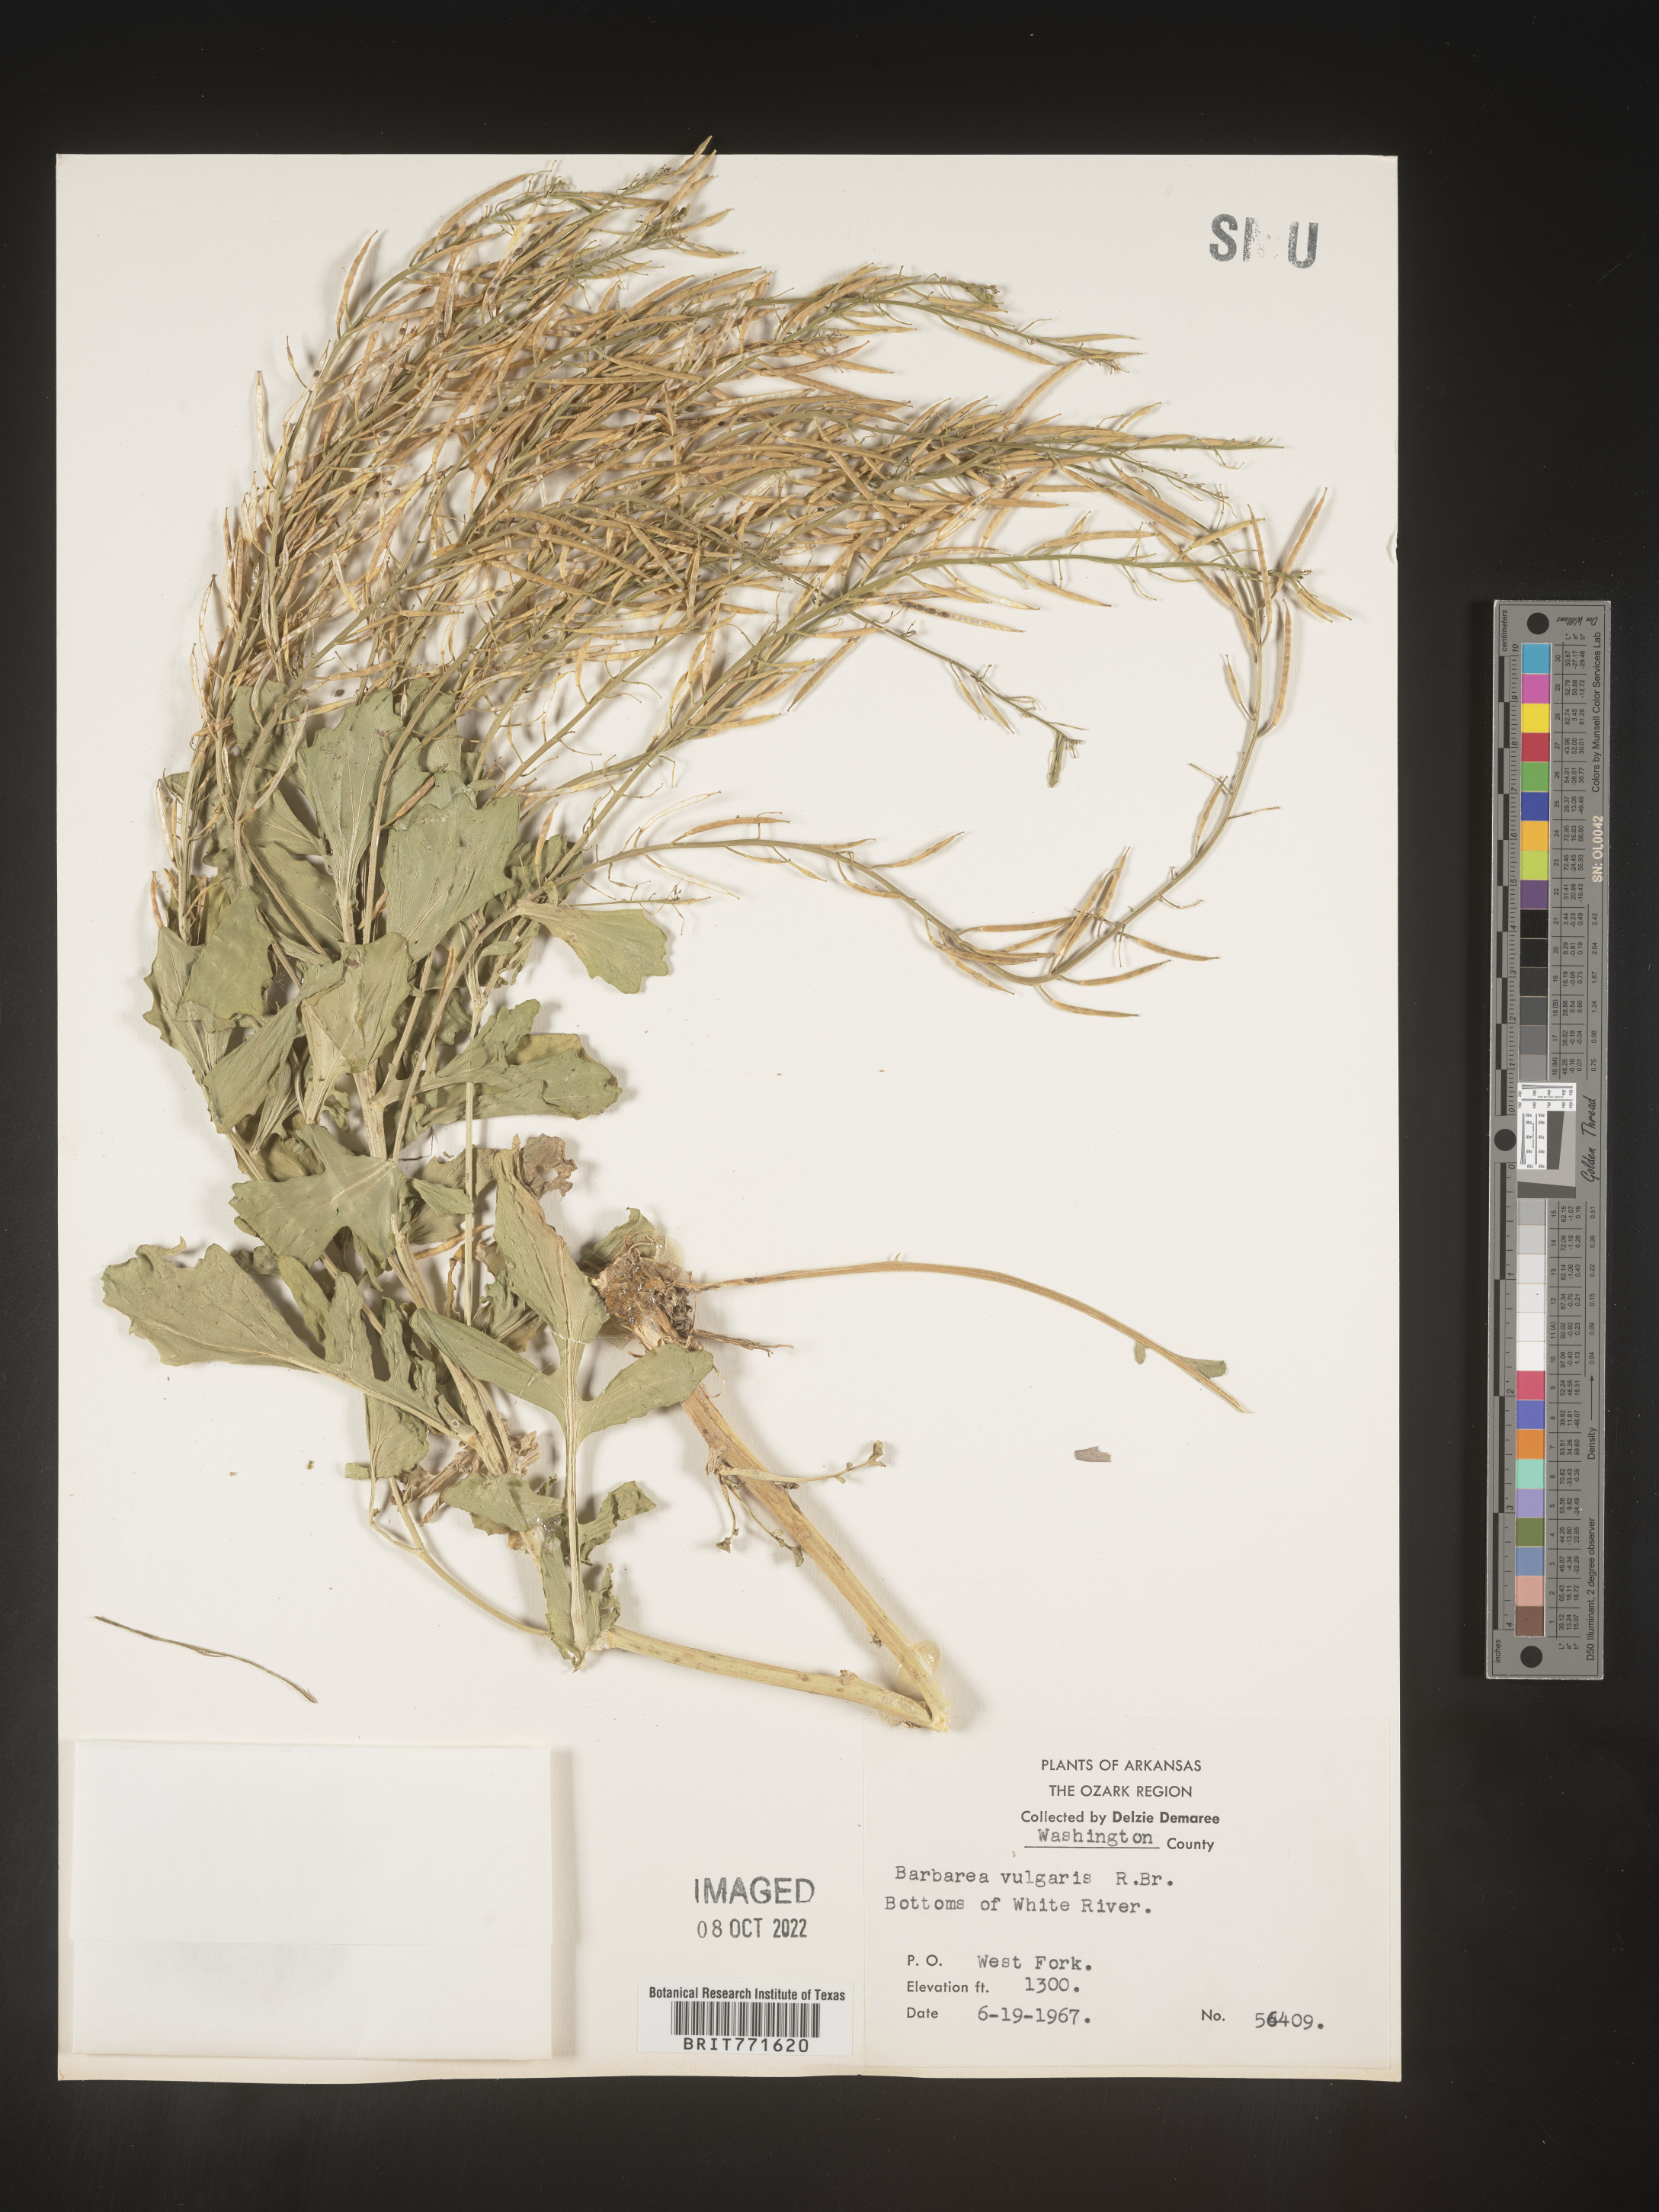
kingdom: Plantae
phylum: Tracheophyta
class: Magnoliopsida
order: Brassicales
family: Brassicaceae
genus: Barbarea
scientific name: Barbarea vulgaris
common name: Cressy-greens
